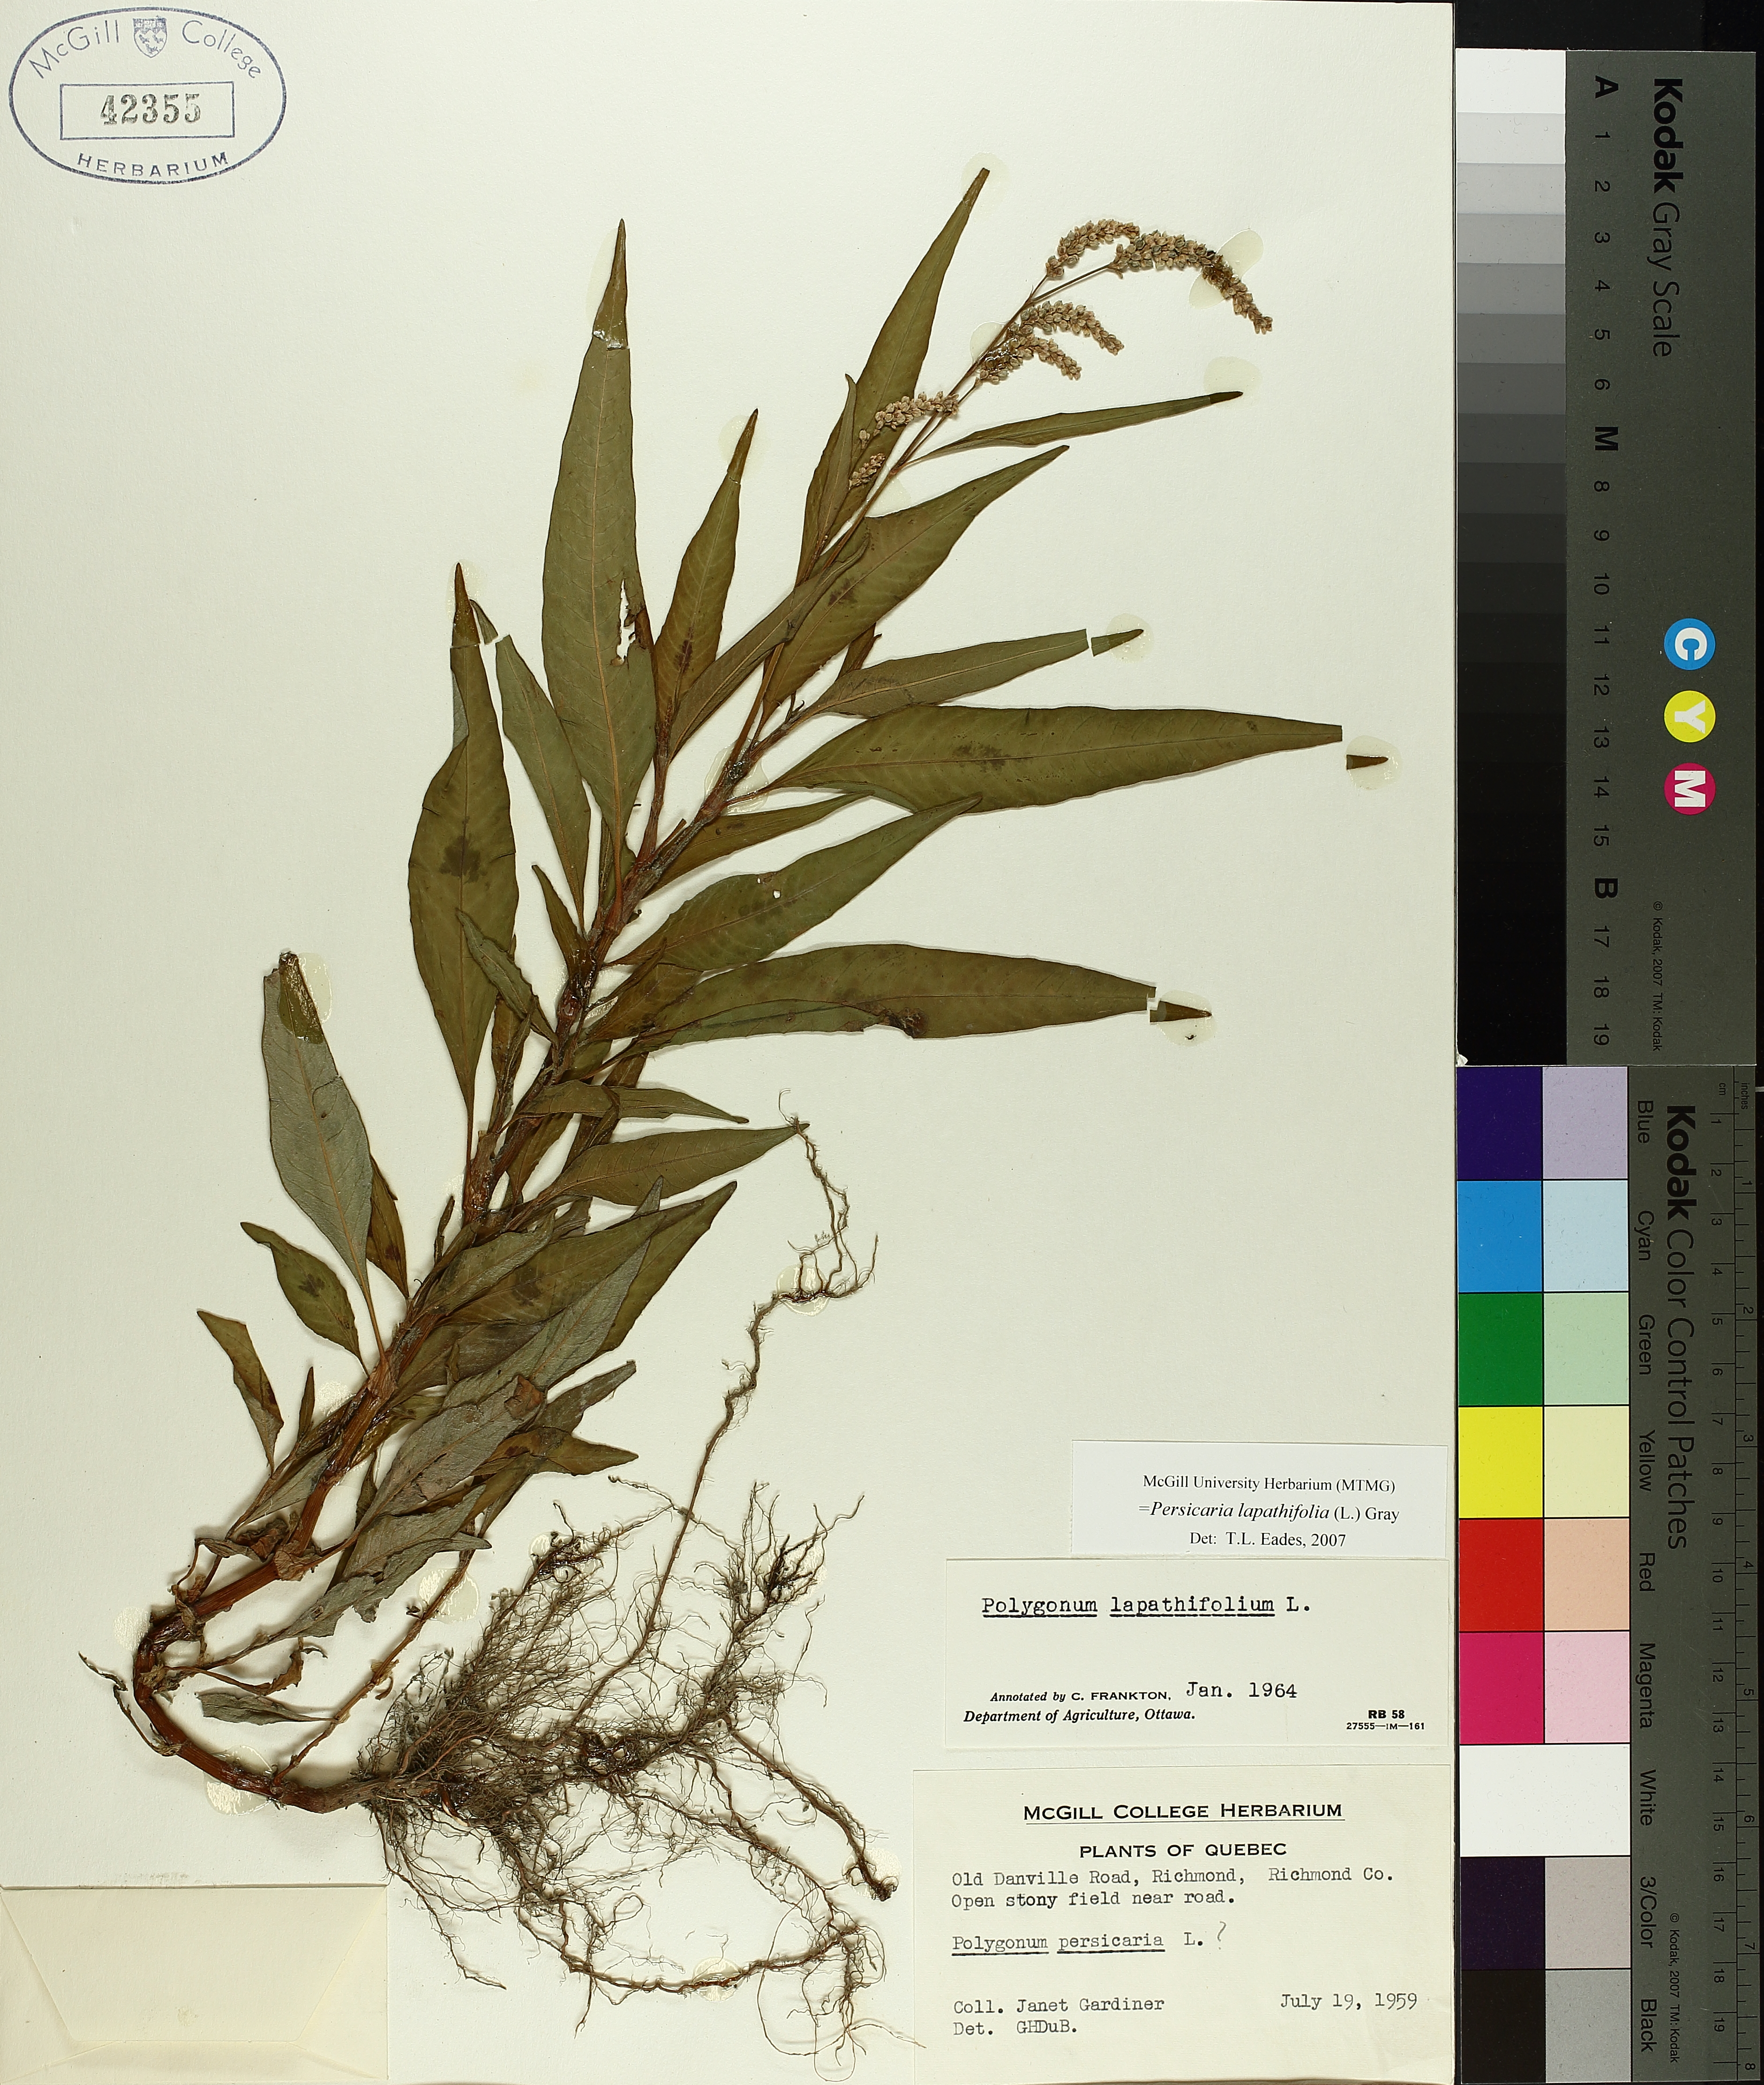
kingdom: Plantae
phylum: Tracheophyta
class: Magnoliopsida
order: Caryophyllales
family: Polygonaceae
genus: Persicaria
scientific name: Persicaria maculosa
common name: Redshank
